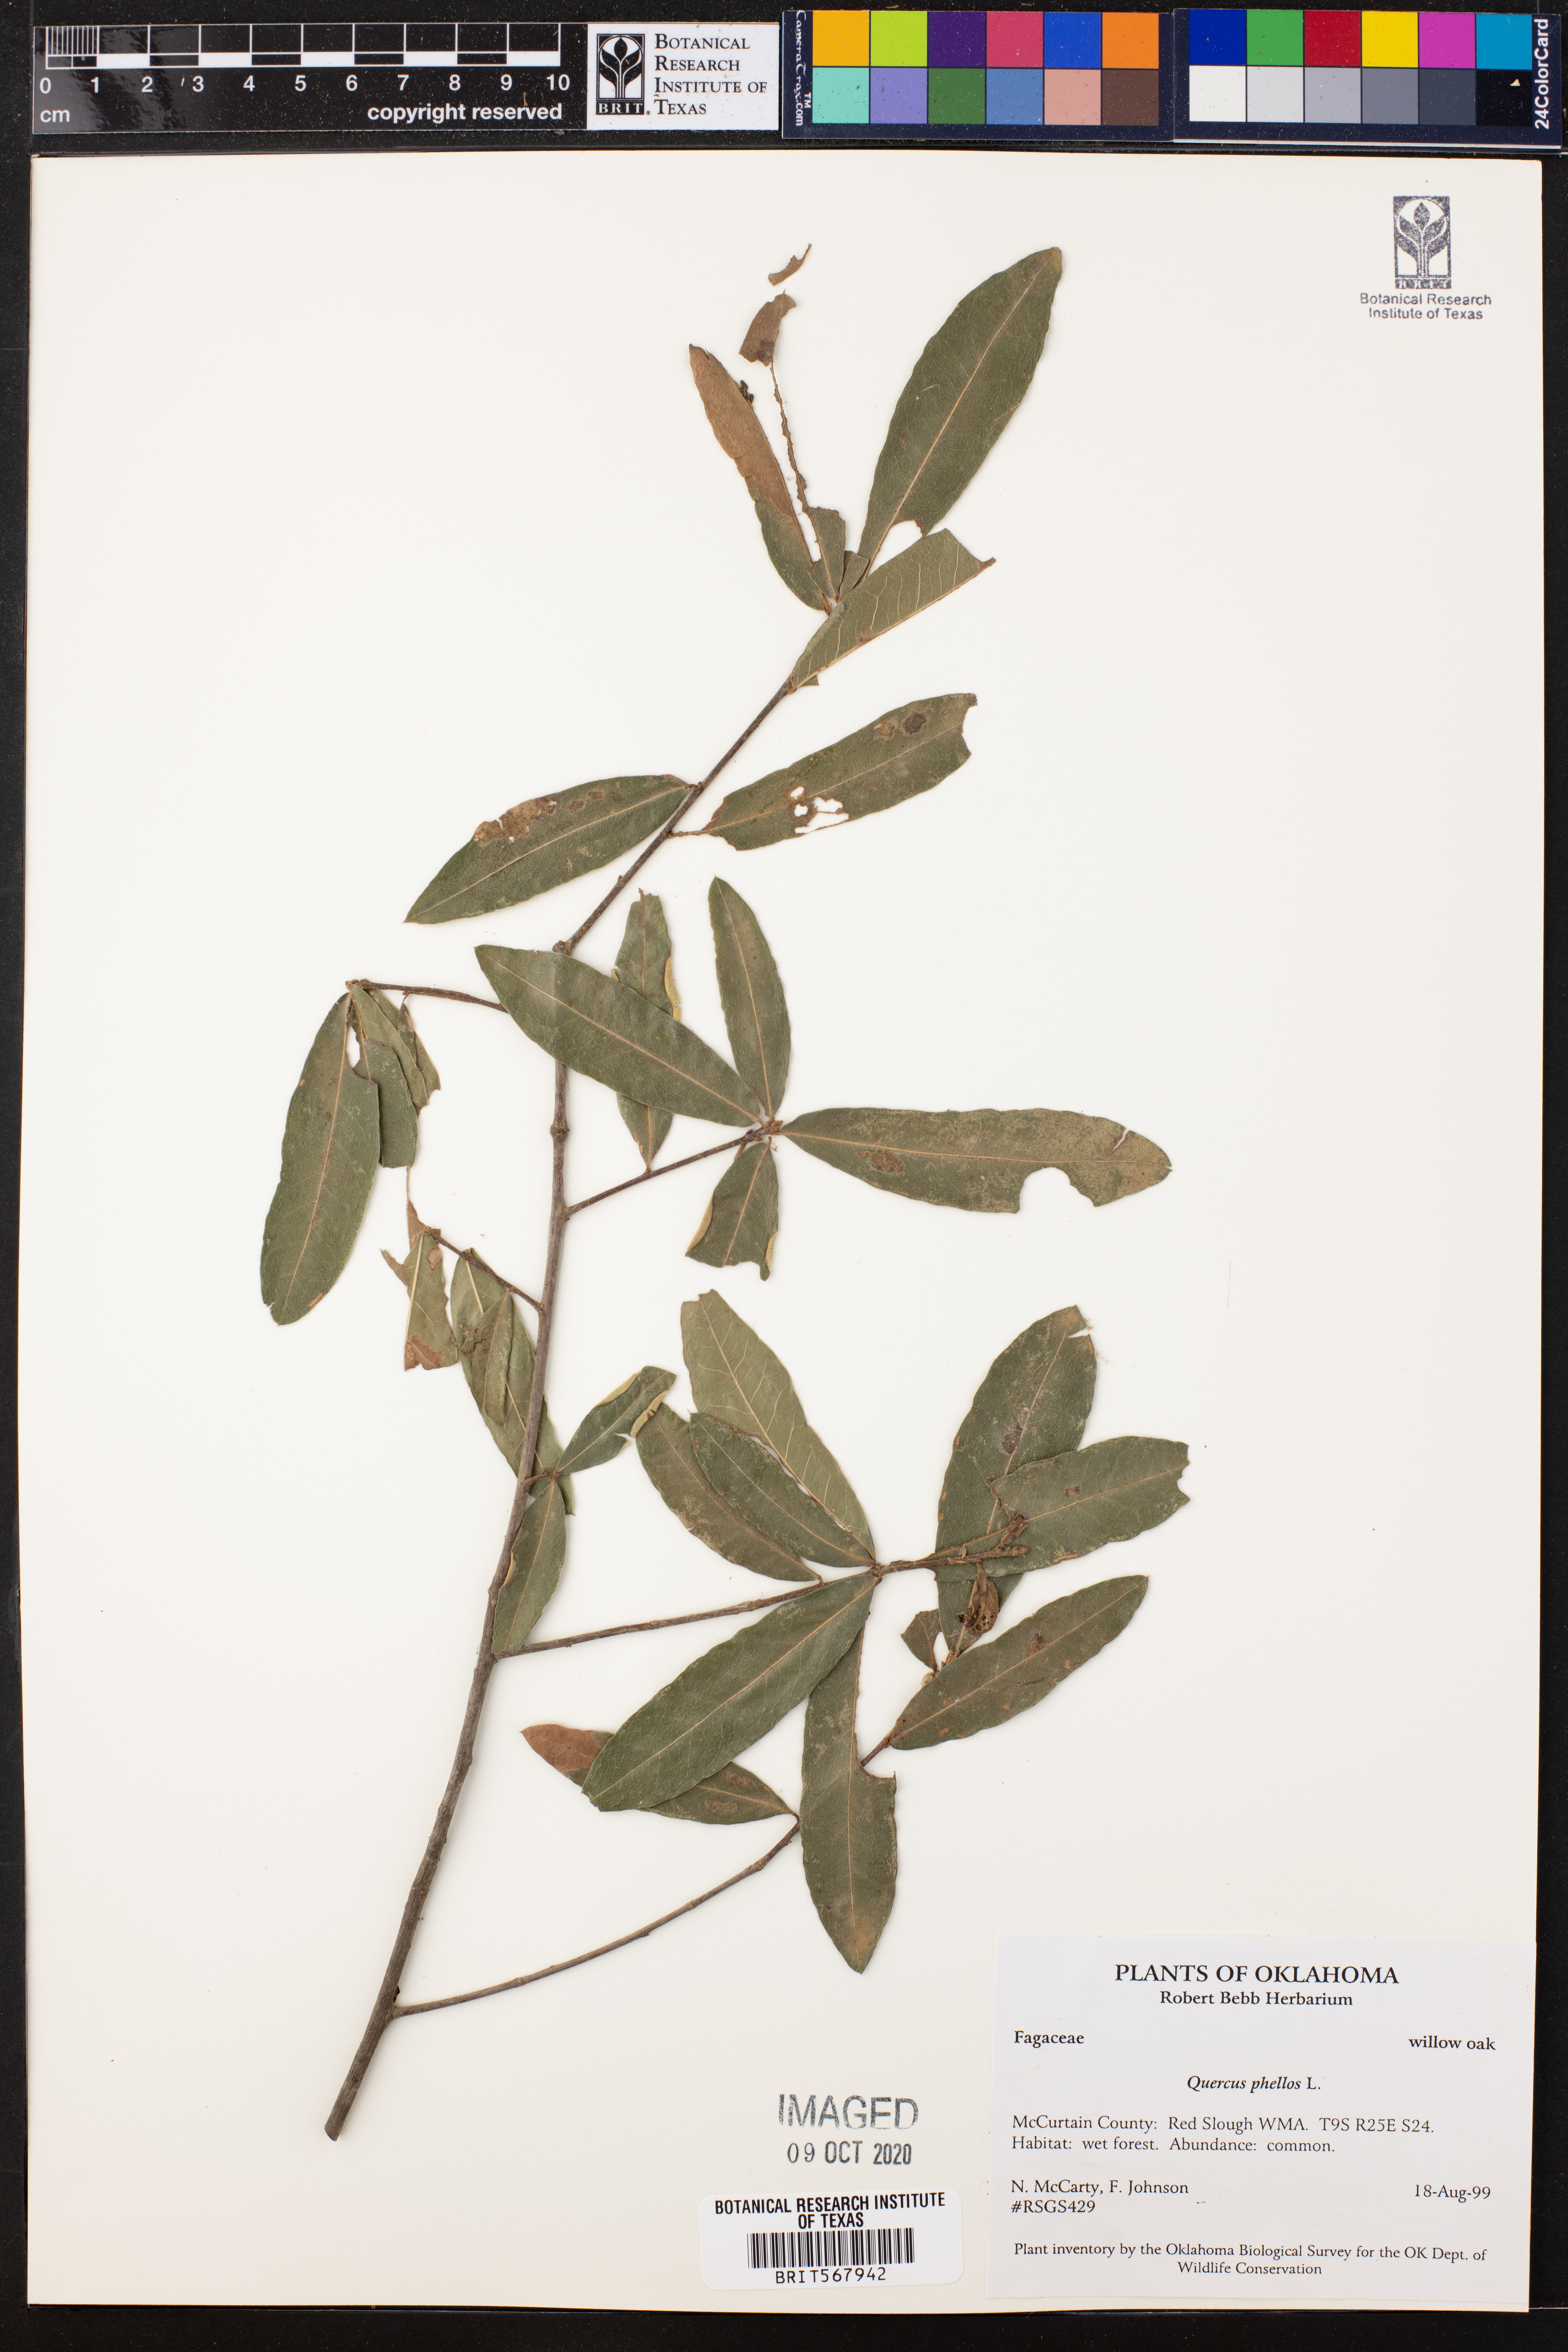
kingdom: Plantae
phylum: Tracheophyta
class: Magnoliopsida
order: Fagales
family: Fagaceae
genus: Quercus
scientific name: Quercus phellos
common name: Willow oak
